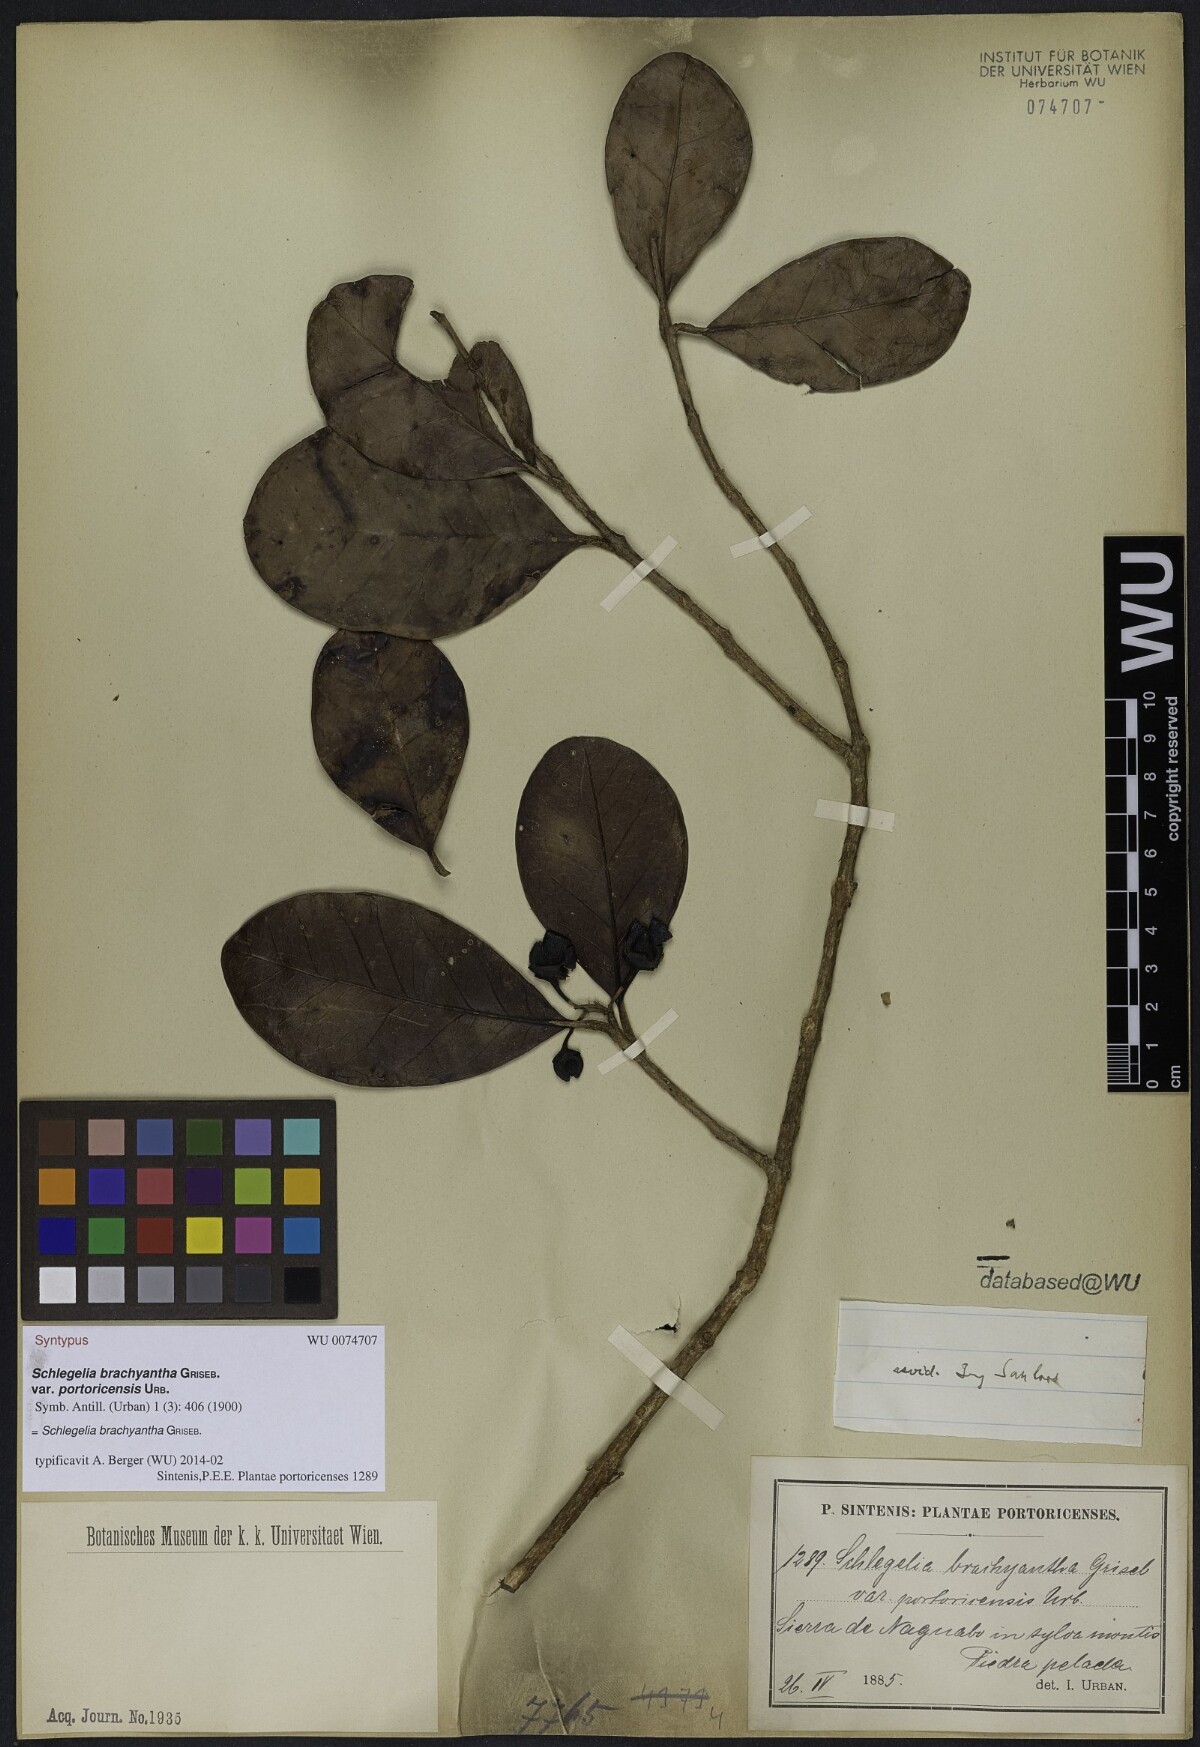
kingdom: Plantae
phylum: Tracheophyta
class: Magnoliopsida
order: Lamiales
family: Schlegeliaceae
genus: Schlegelia
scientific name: Schlegelia brachyantha
